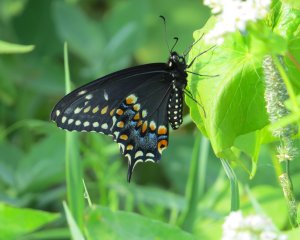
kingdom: Animalia
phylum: Arthropoda
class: Insecta
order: Lepidoptera
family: Papilionidae
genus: Papilio
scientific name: Papilio polyxenes
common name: Black Swallowtail
